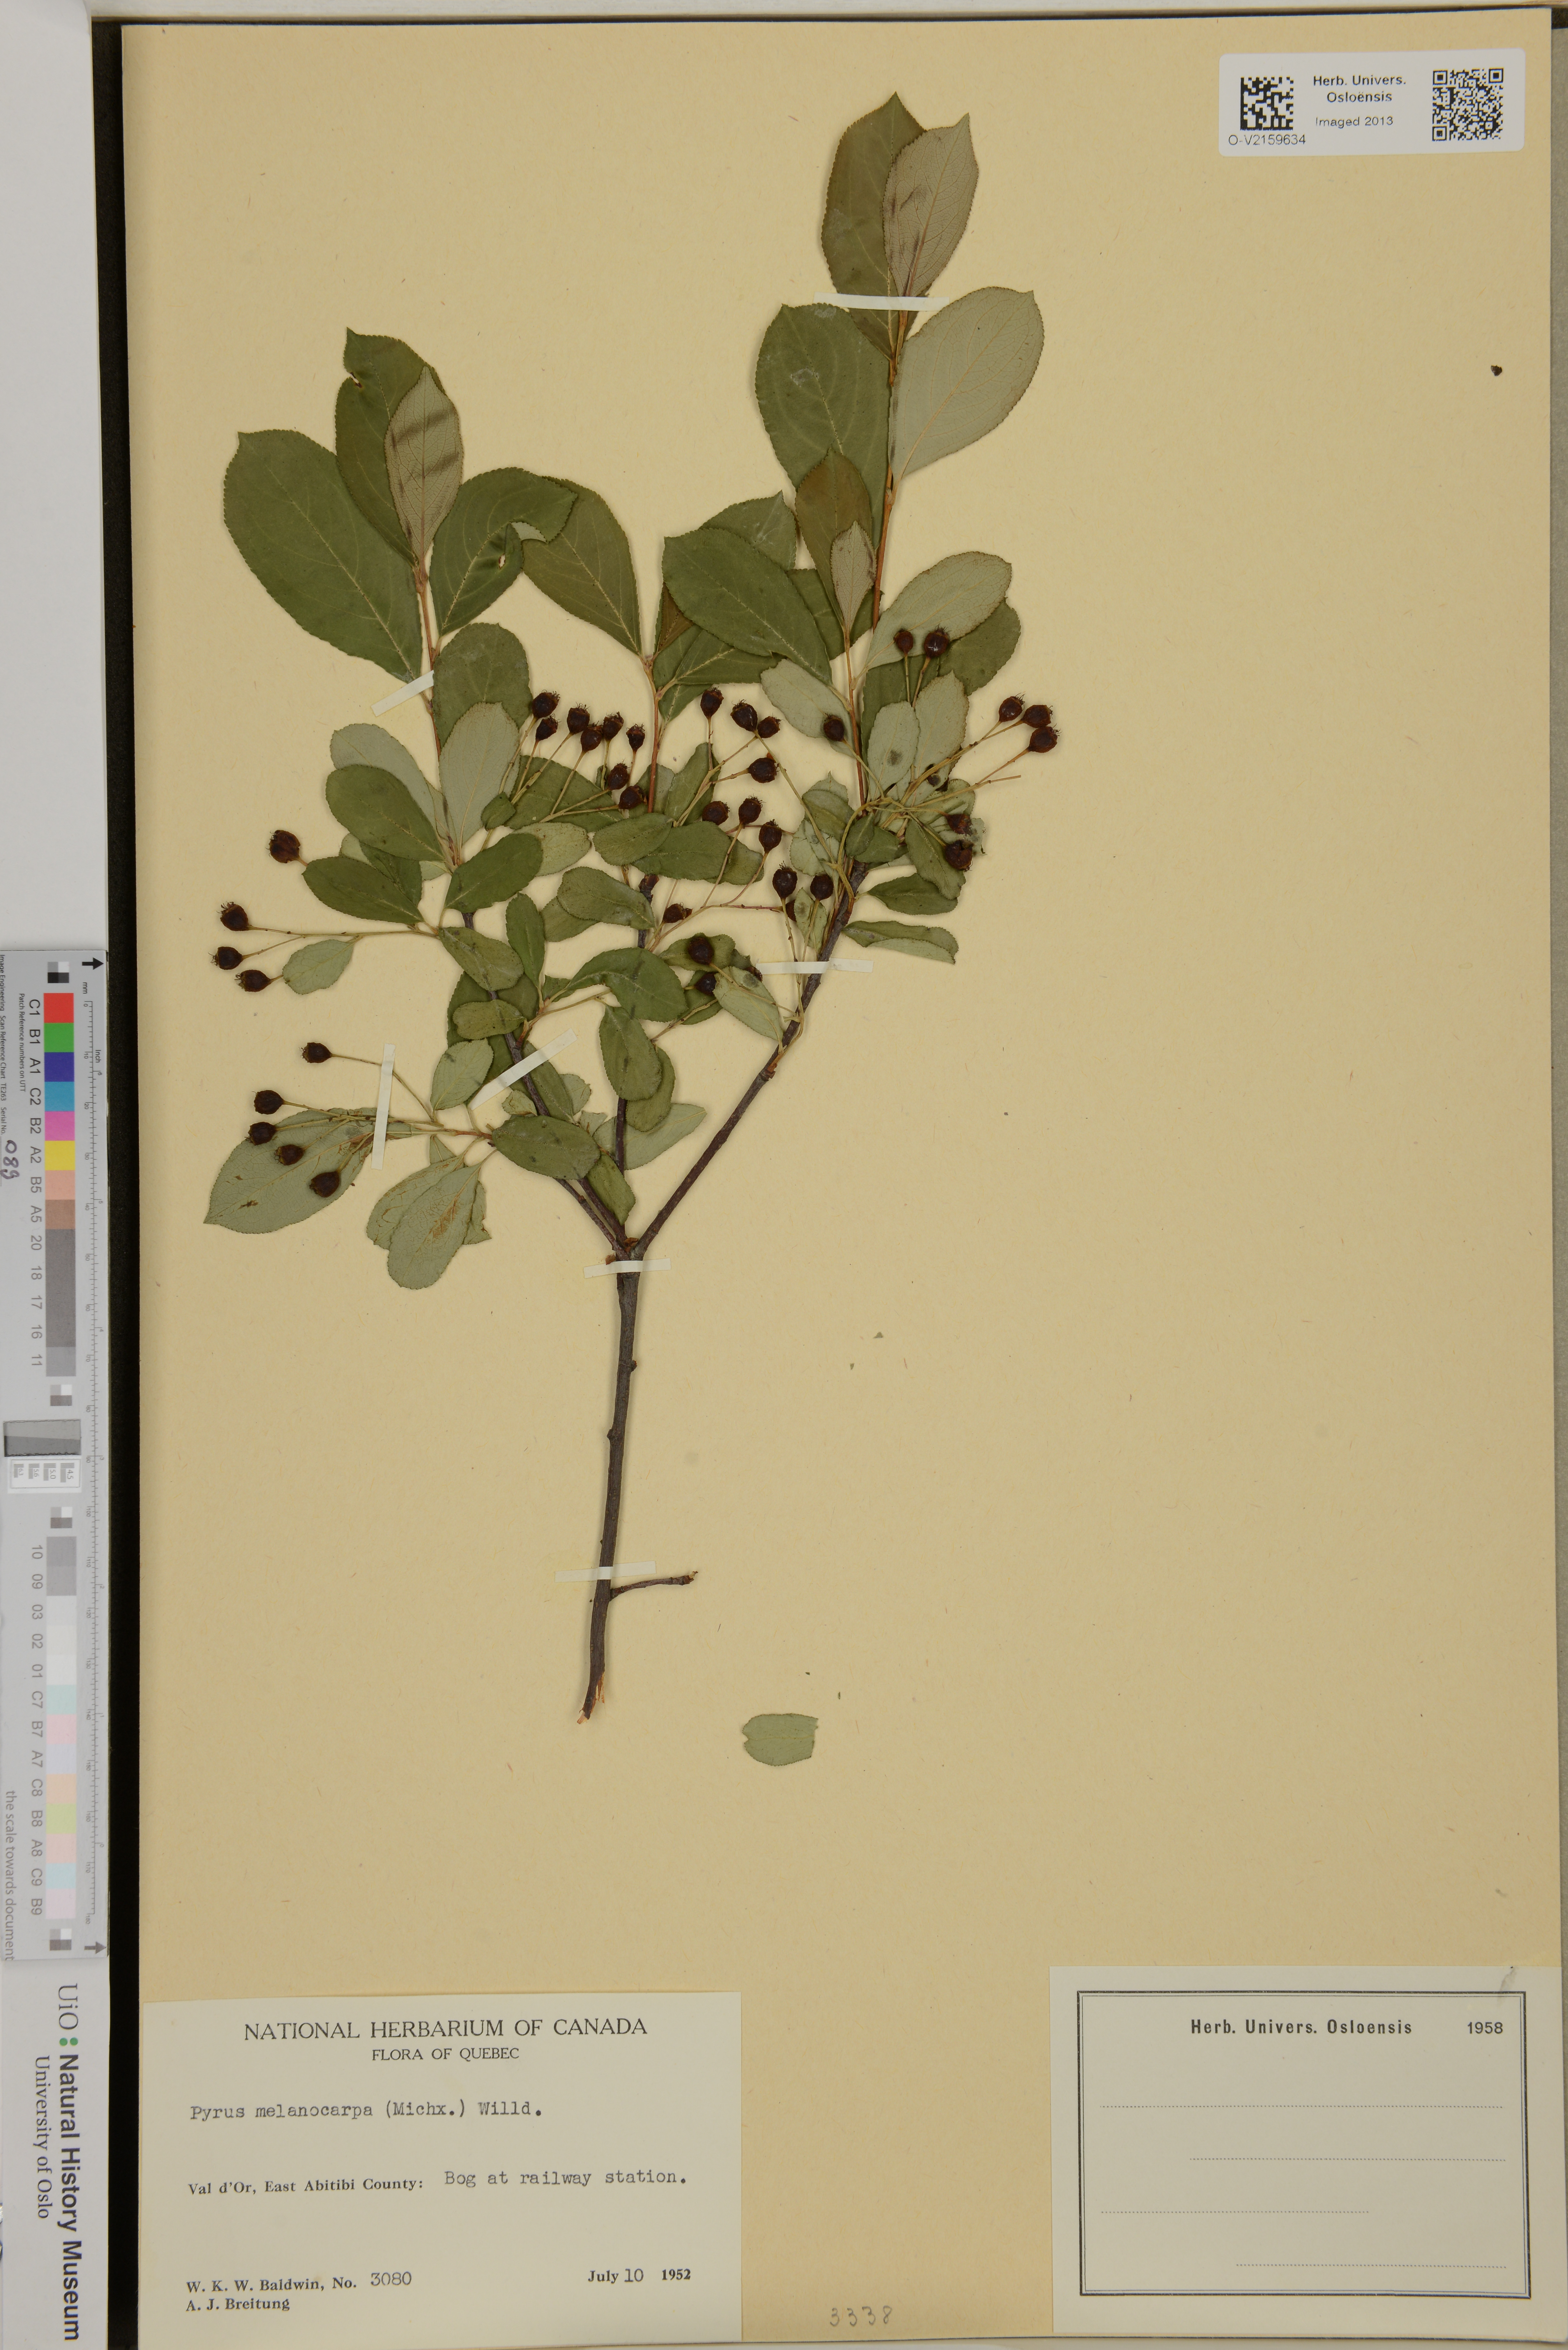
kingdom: Plantae
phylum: Tracheophyta
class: Magnoliopsida
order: Rosales
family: Rosaceae
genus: Aronia
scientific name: Aronia melanocarpa
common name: Black chokeberry
